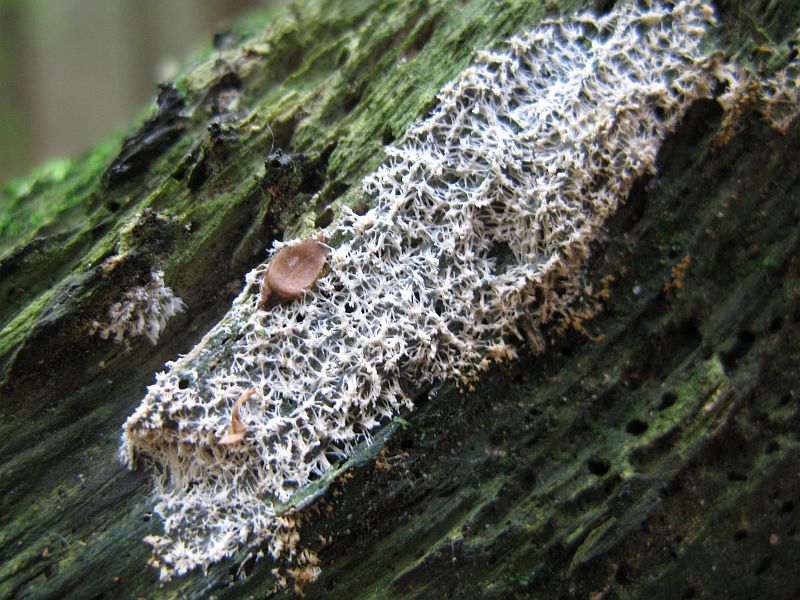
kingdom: Protozoa
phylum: Mycetozoa
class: Protosteliomycetes
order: Ceratiomyxales
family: Ceratiomyxaceae
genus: Ceratiomyxa
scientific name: Ceratiomyxa fruticulosa
